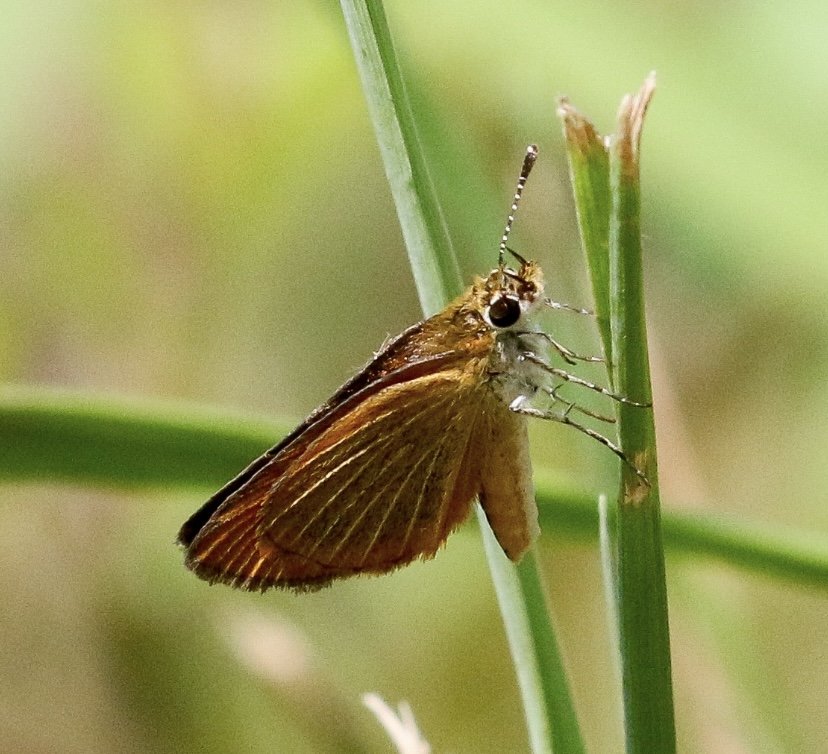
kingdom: Animalia
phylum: Arthropoda
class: Insecta
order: Lepidoptera
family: Hesperiidae
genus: Ancyloxypha
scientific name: Ancyloxypha numitor
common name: Least Skipper
